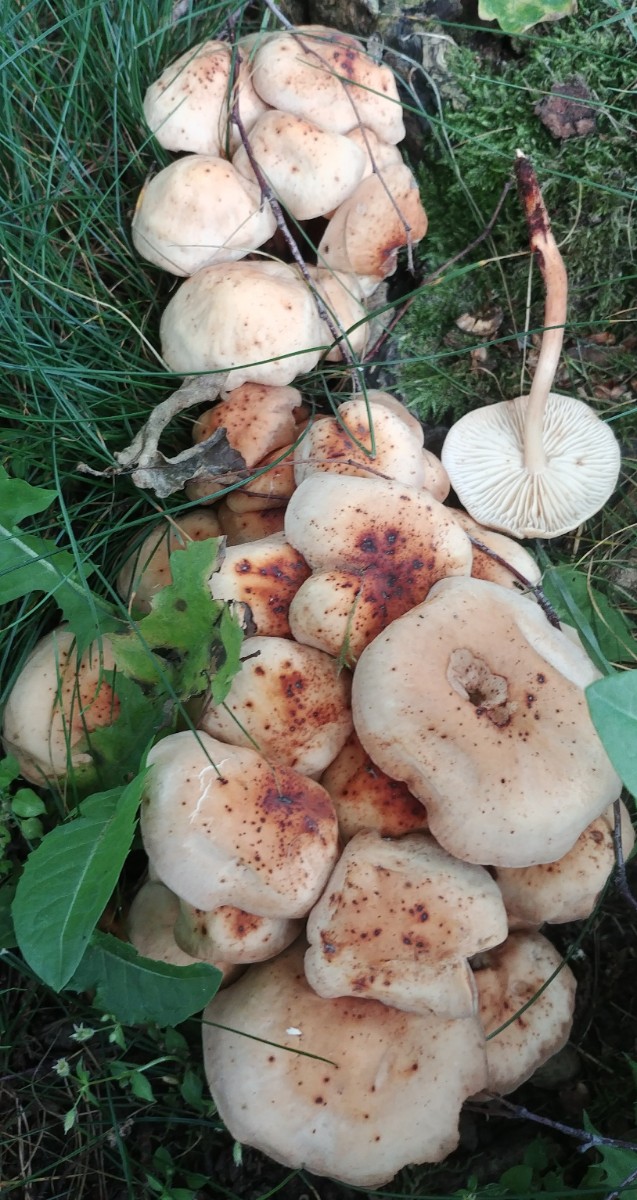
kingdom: Fungi
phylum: Basidiomycota
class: Agaricomycetes
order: Agaricales
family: Omphalotaceae
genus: Gymnopus
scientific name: Gymnopus fusipes
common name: tenstokket fladhat
